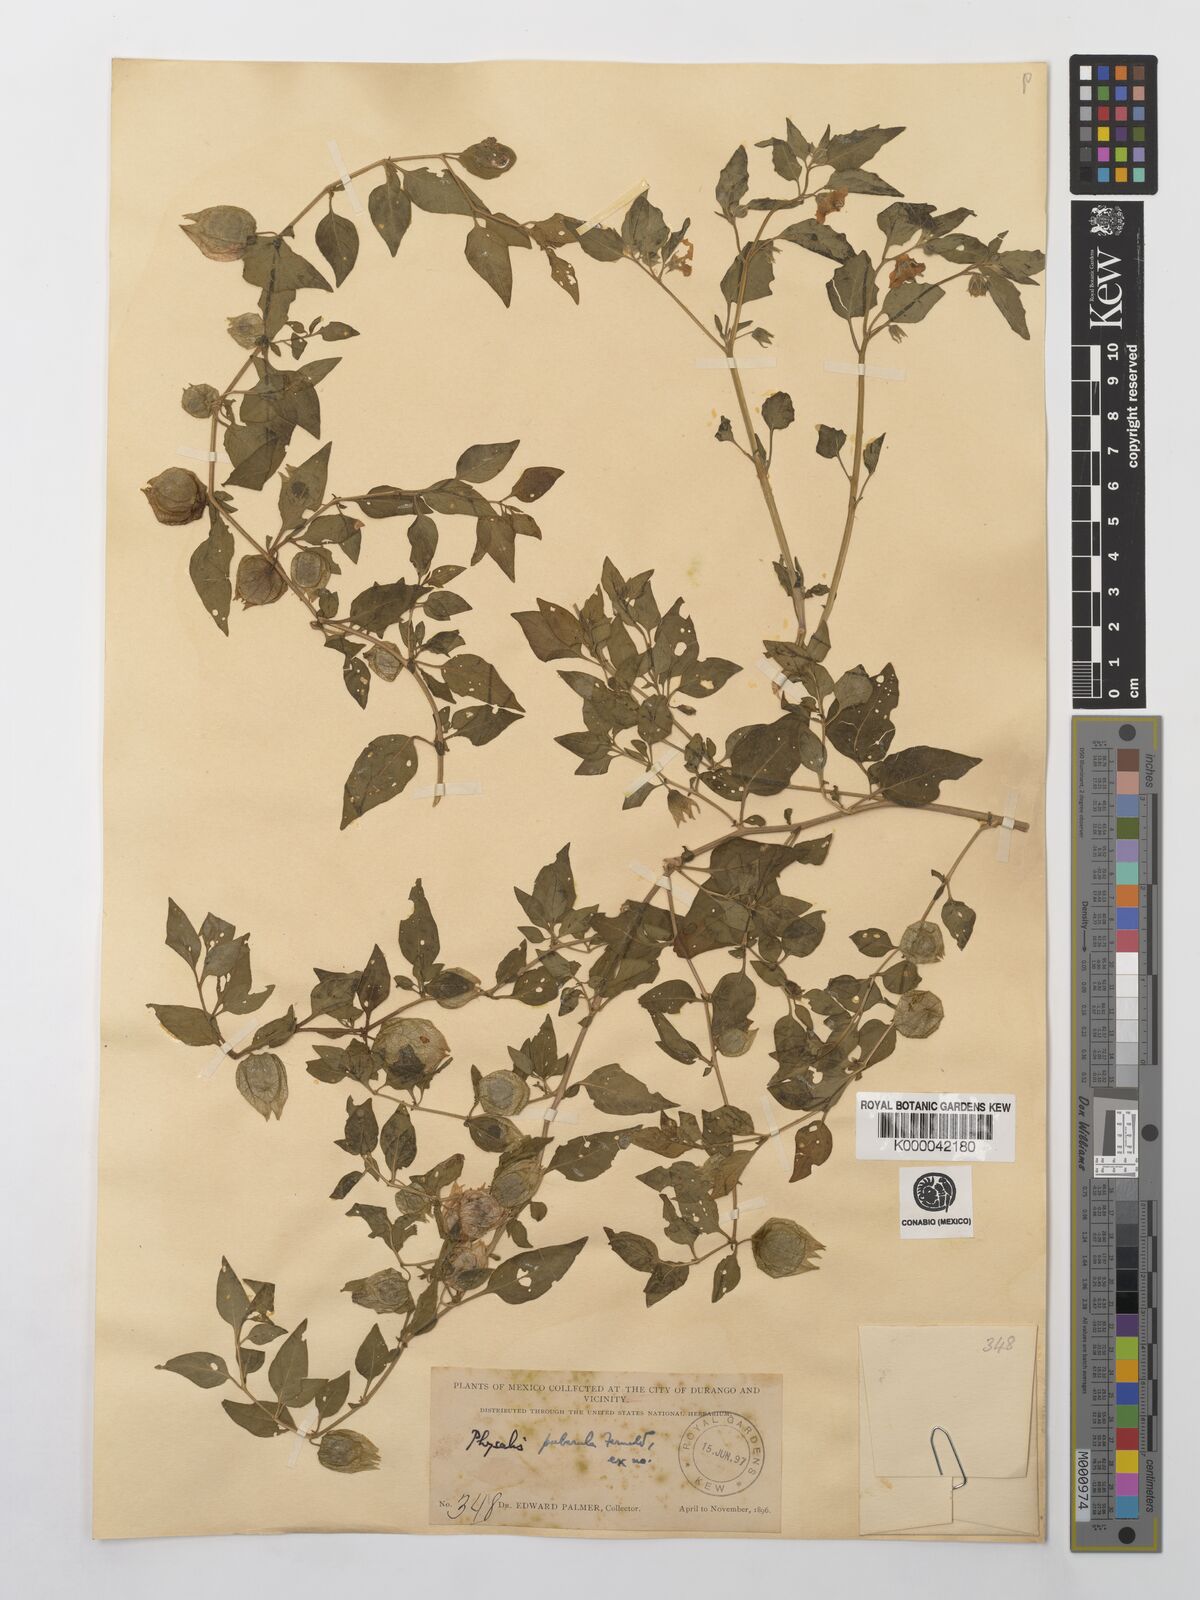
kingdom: Plantae
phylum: Tracheophyta
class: Magnoliopsida
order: Solanales
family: Solanaceae
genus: Physalis
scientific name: Physalis peruviana
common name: Cape-gooseberry
